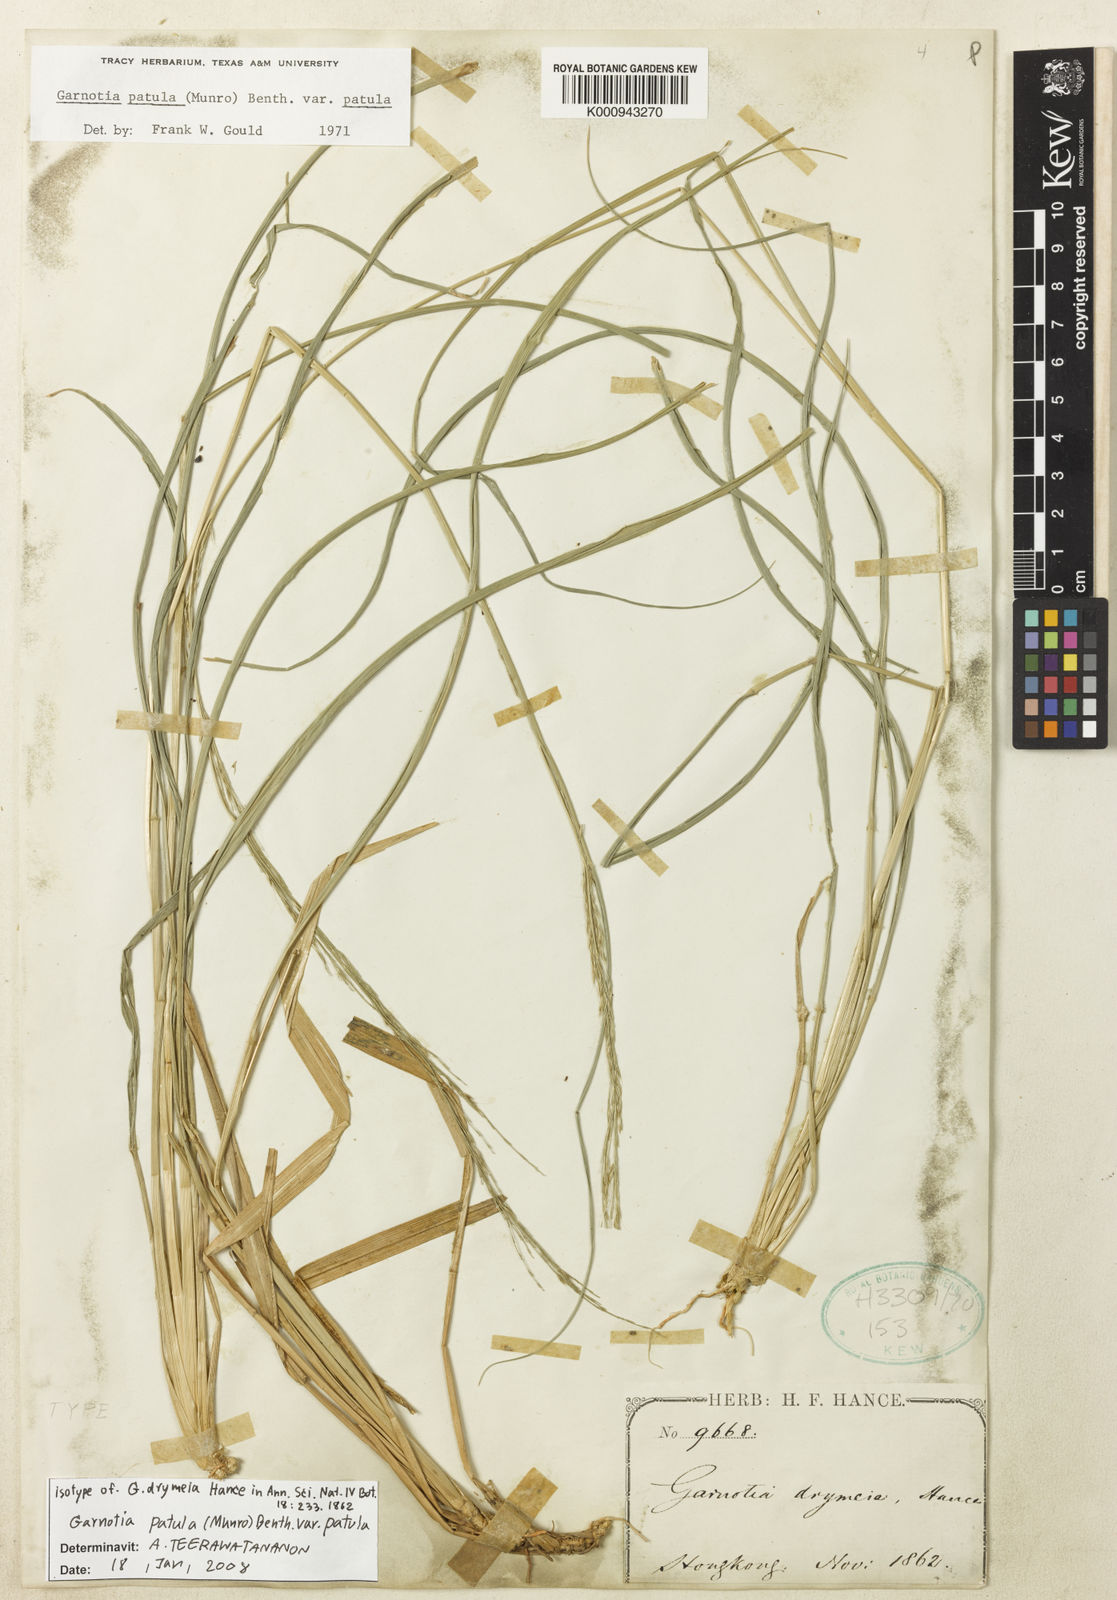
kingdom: Plantae
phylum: Tracheophyta
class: Liliopsida
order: Poales
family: Poaceae
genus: Garnotia
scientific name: Garnotia patula
